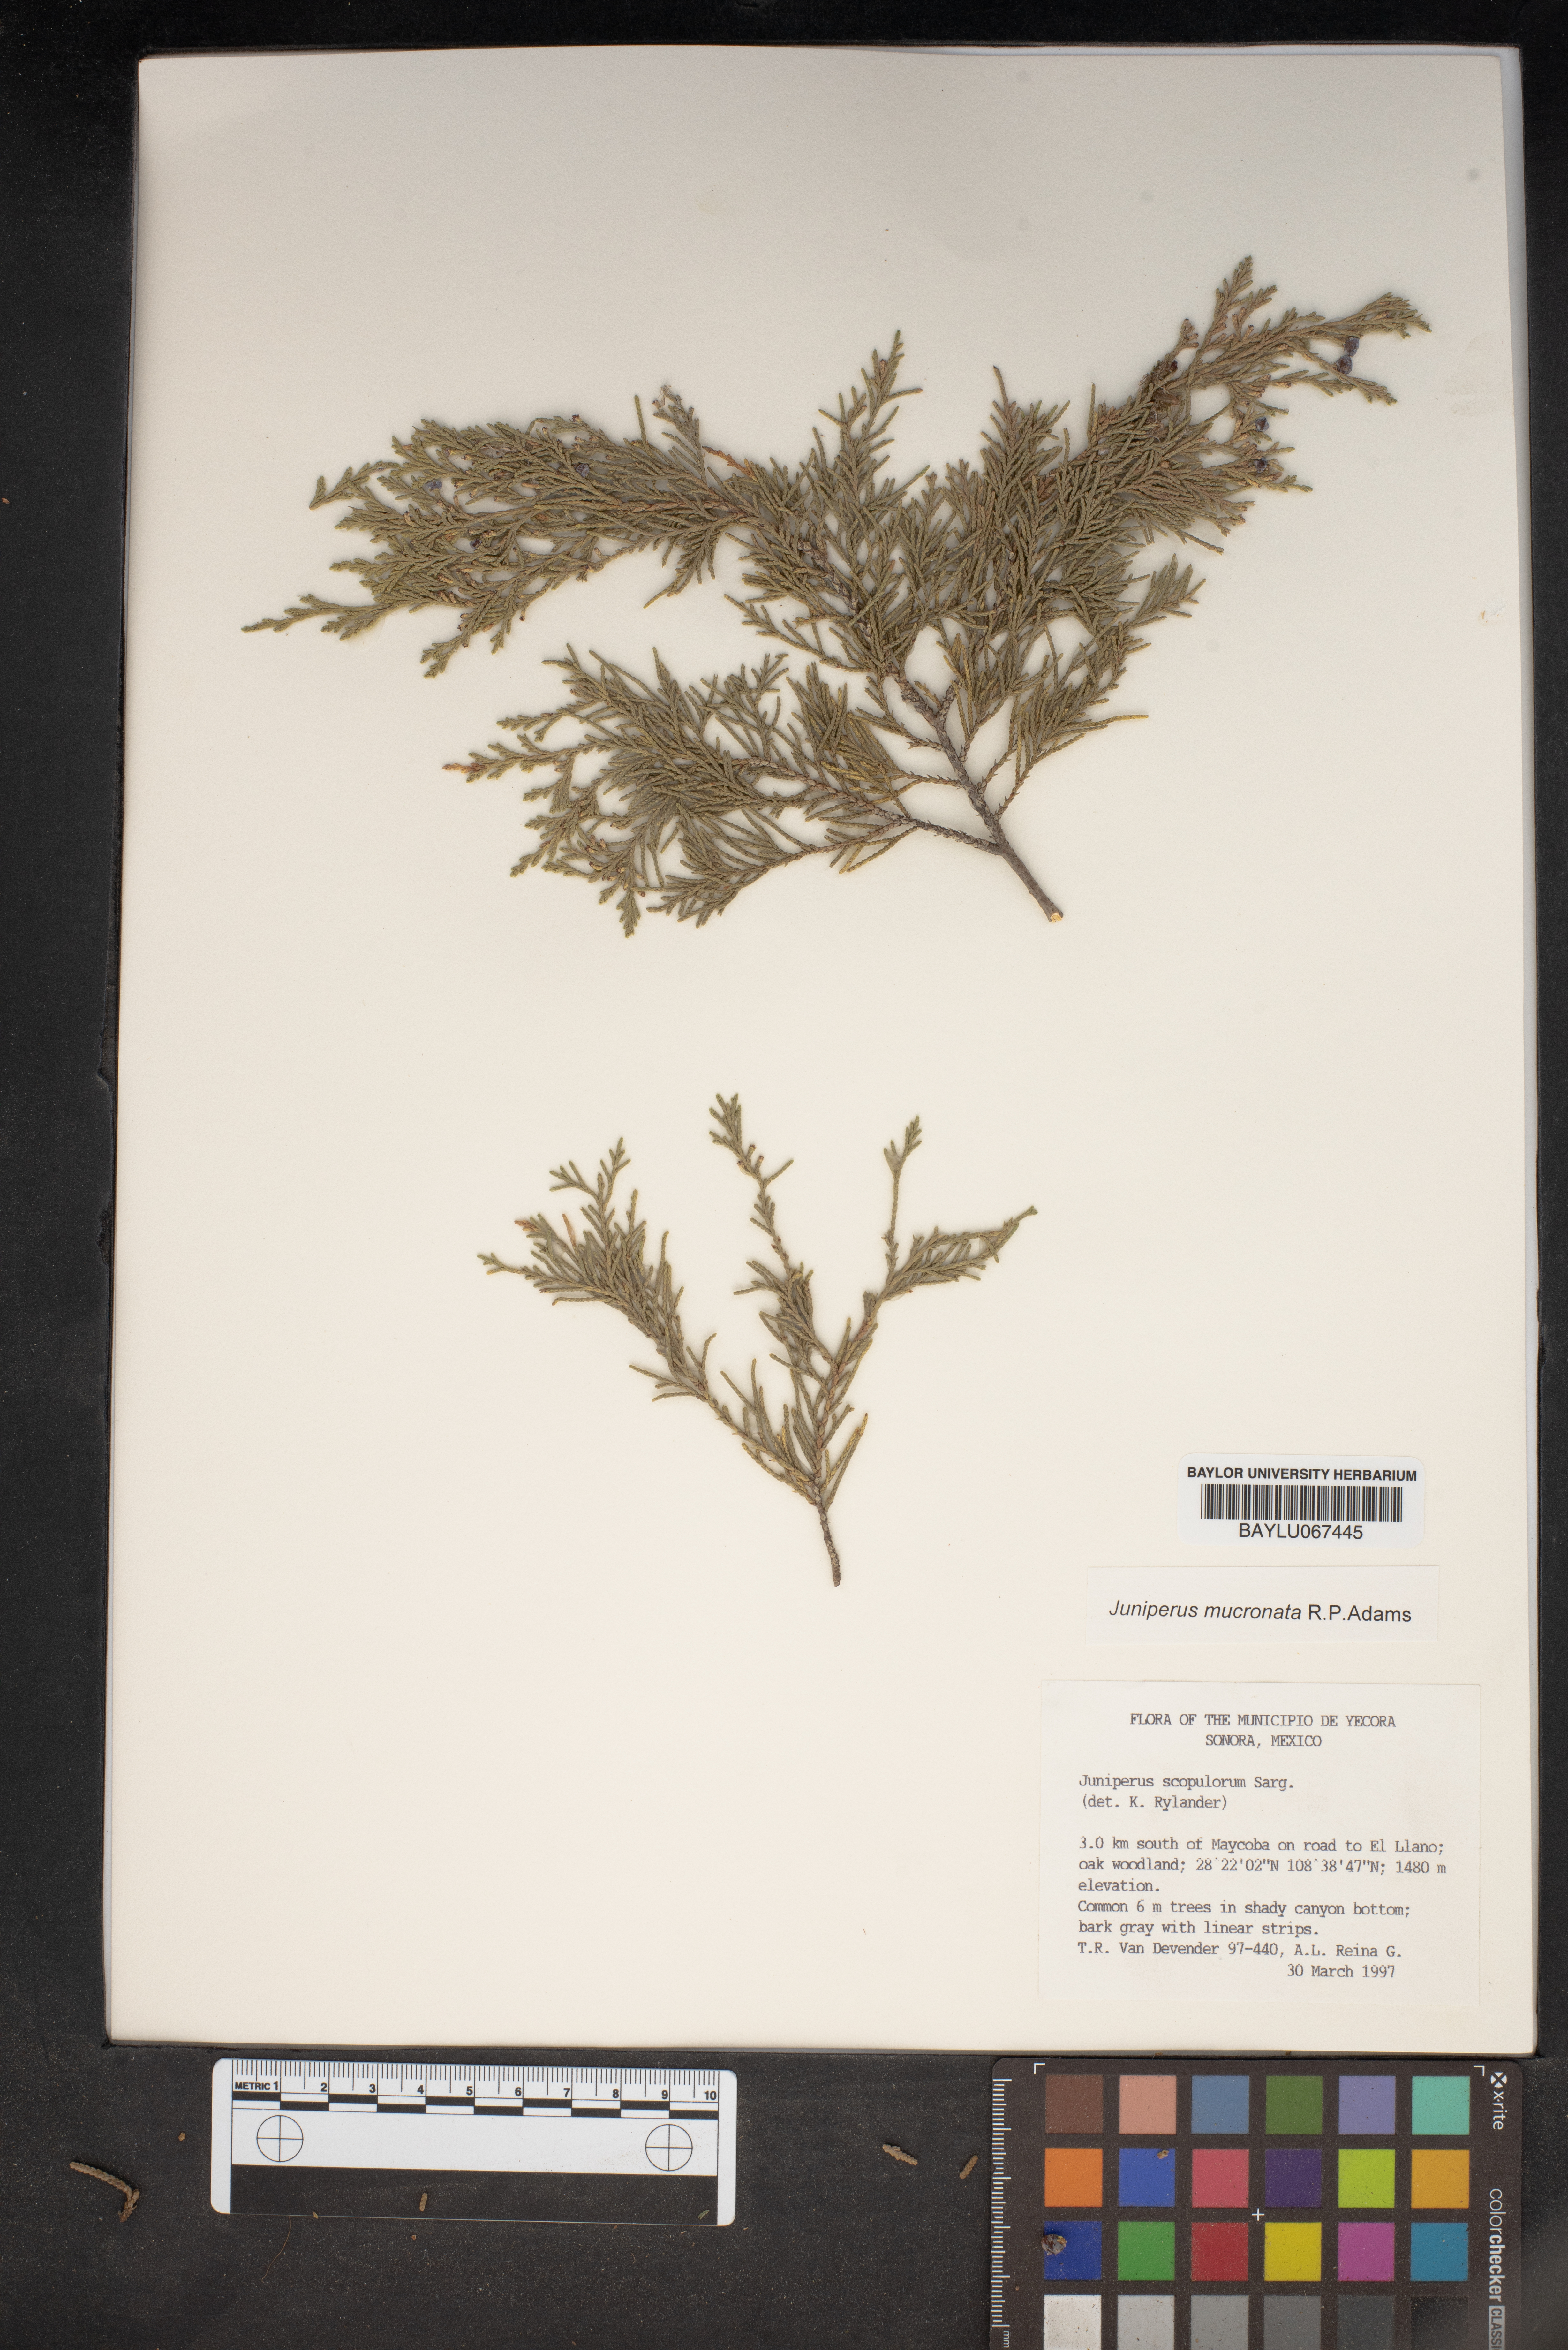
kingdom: Plantae
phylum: Tracheophyta
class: Pinopsida
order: Pinales
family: Cupressaceae
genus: Juniperus
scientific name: Juniperus scopulorum
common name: Rocky mountain juniper
